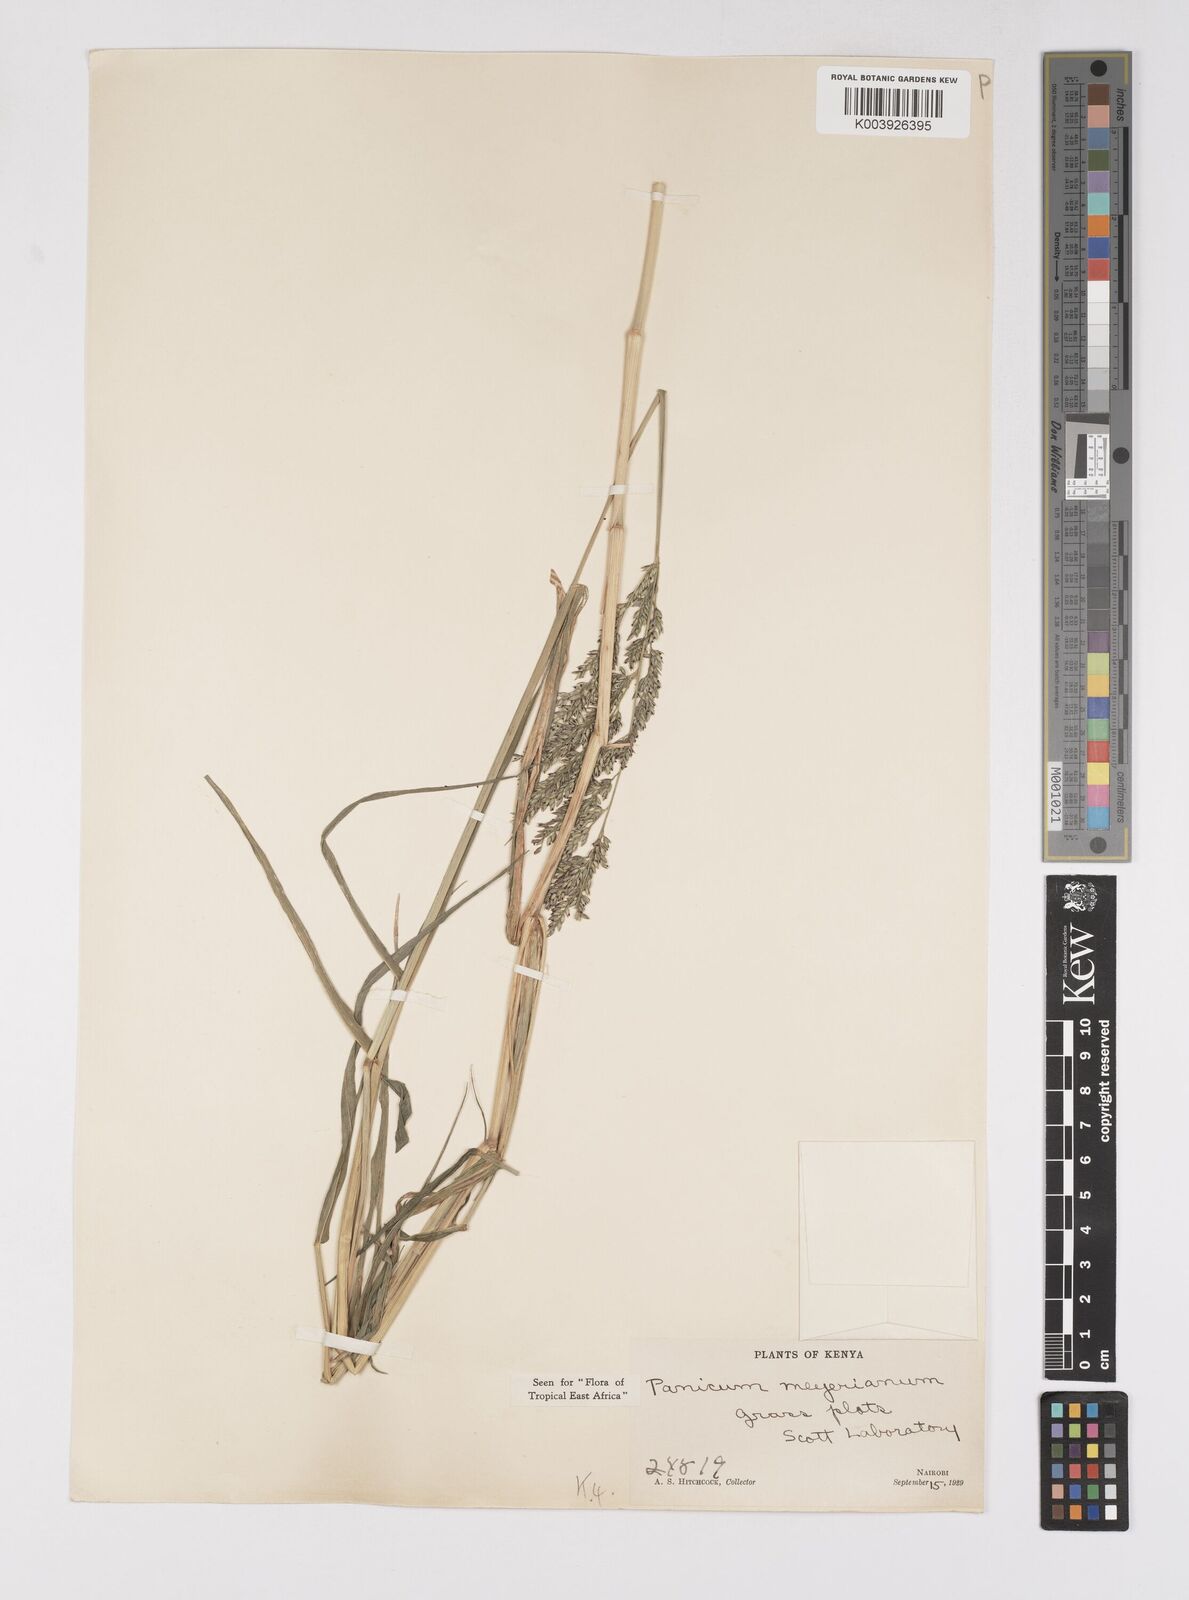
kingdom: Plantae
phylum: Tracheophyta
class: Liliopsida
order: Poales
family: Poaceae
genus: Eriochloa
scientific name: Eriochloa meyeriana
